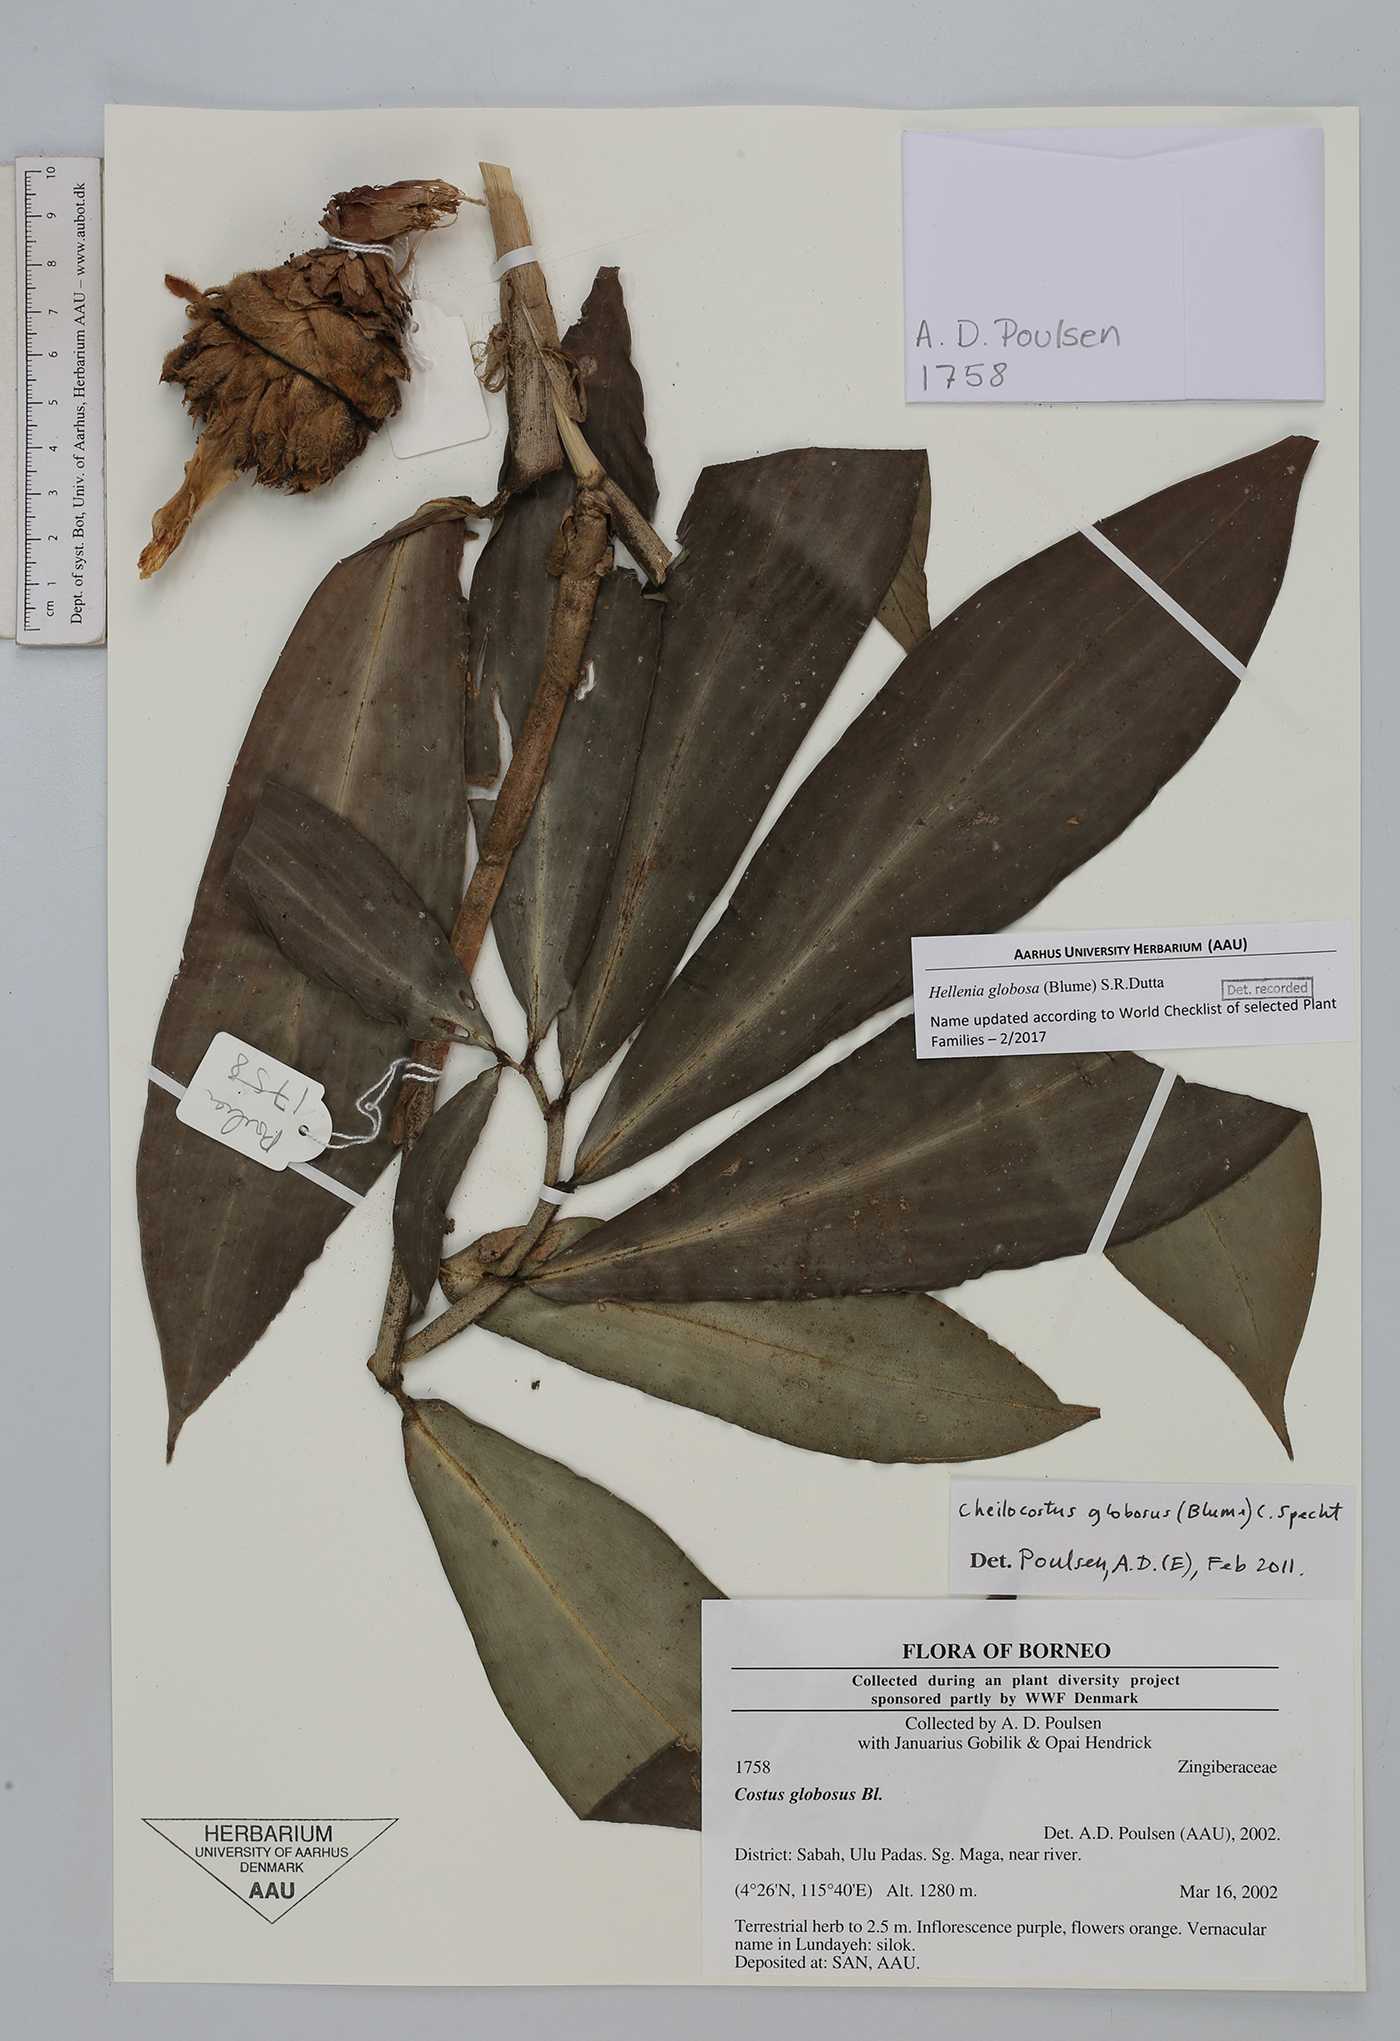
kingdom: Plantae
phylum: Tracheophyta
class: Liliopsida
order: Zingiberales
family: Costaceae
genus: Hellenia
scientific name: Hellenia globosa
